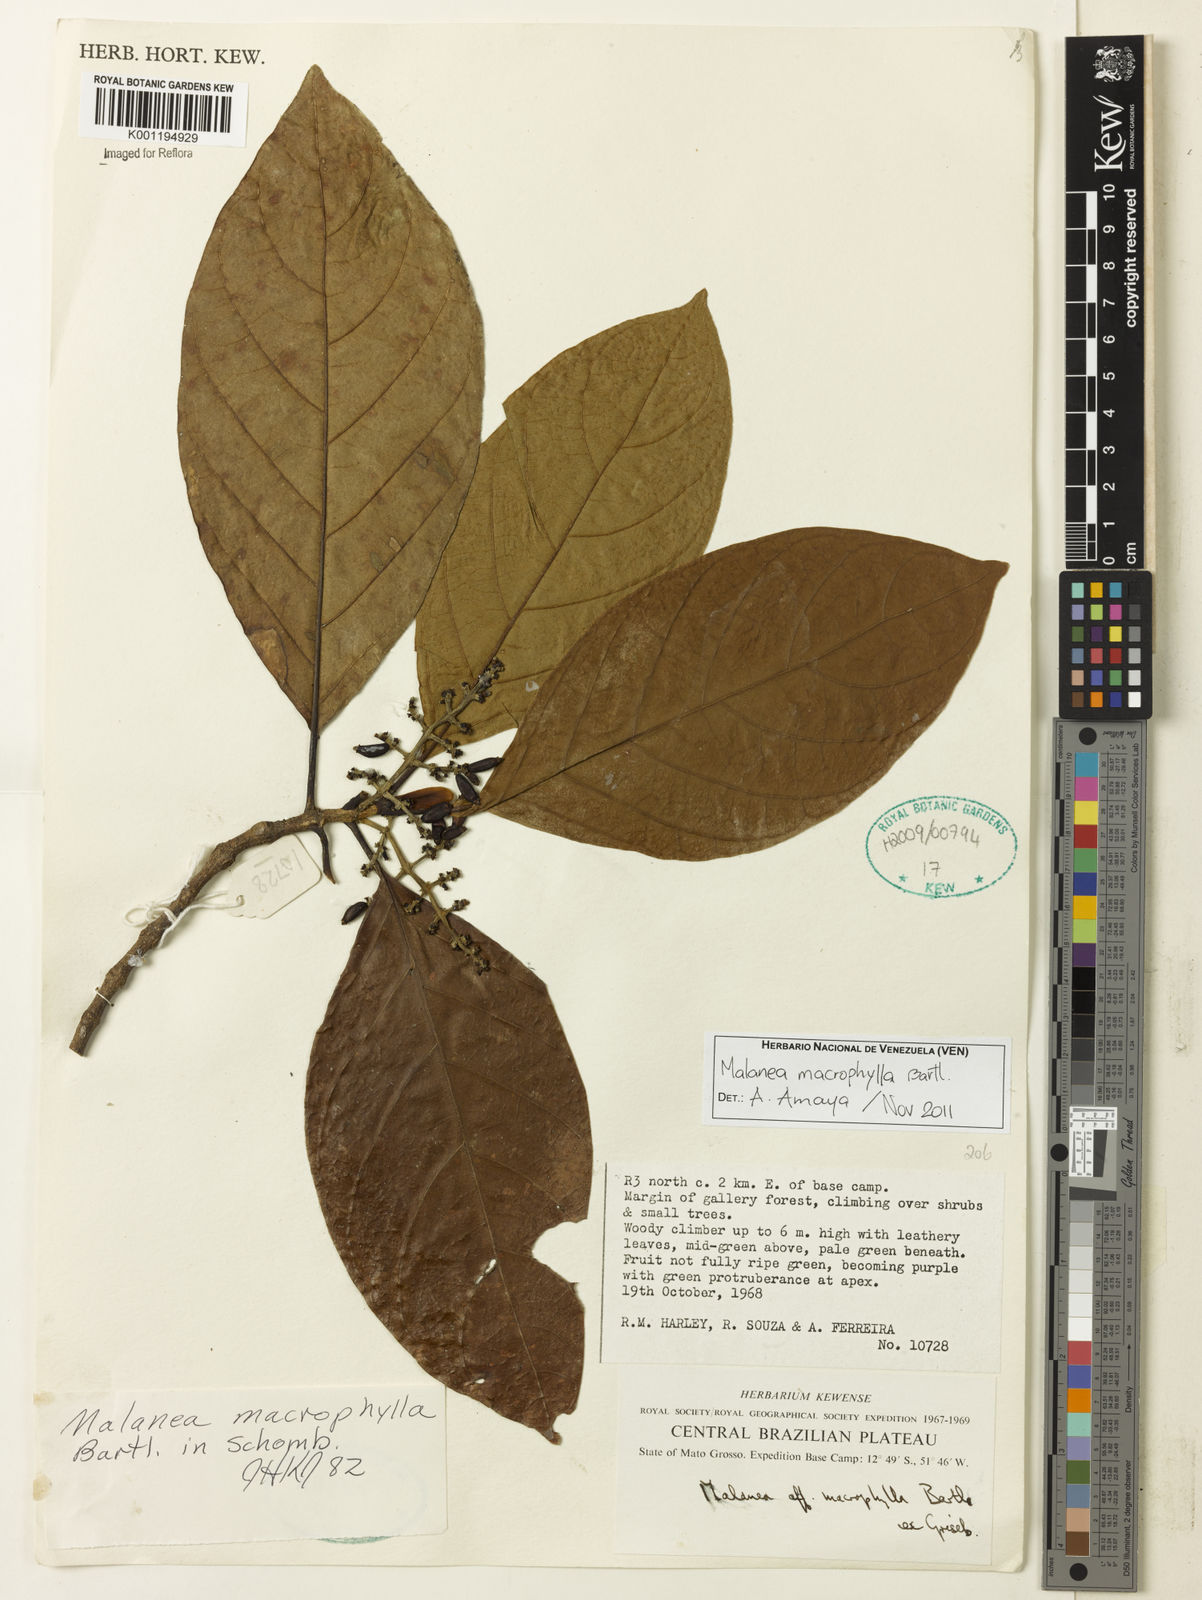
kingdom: Plantae
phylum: Tracheophyta
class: Magnoliopsida
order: Gentianales
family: Rubiaceae
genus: Malanea
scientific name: Malanea glabra
